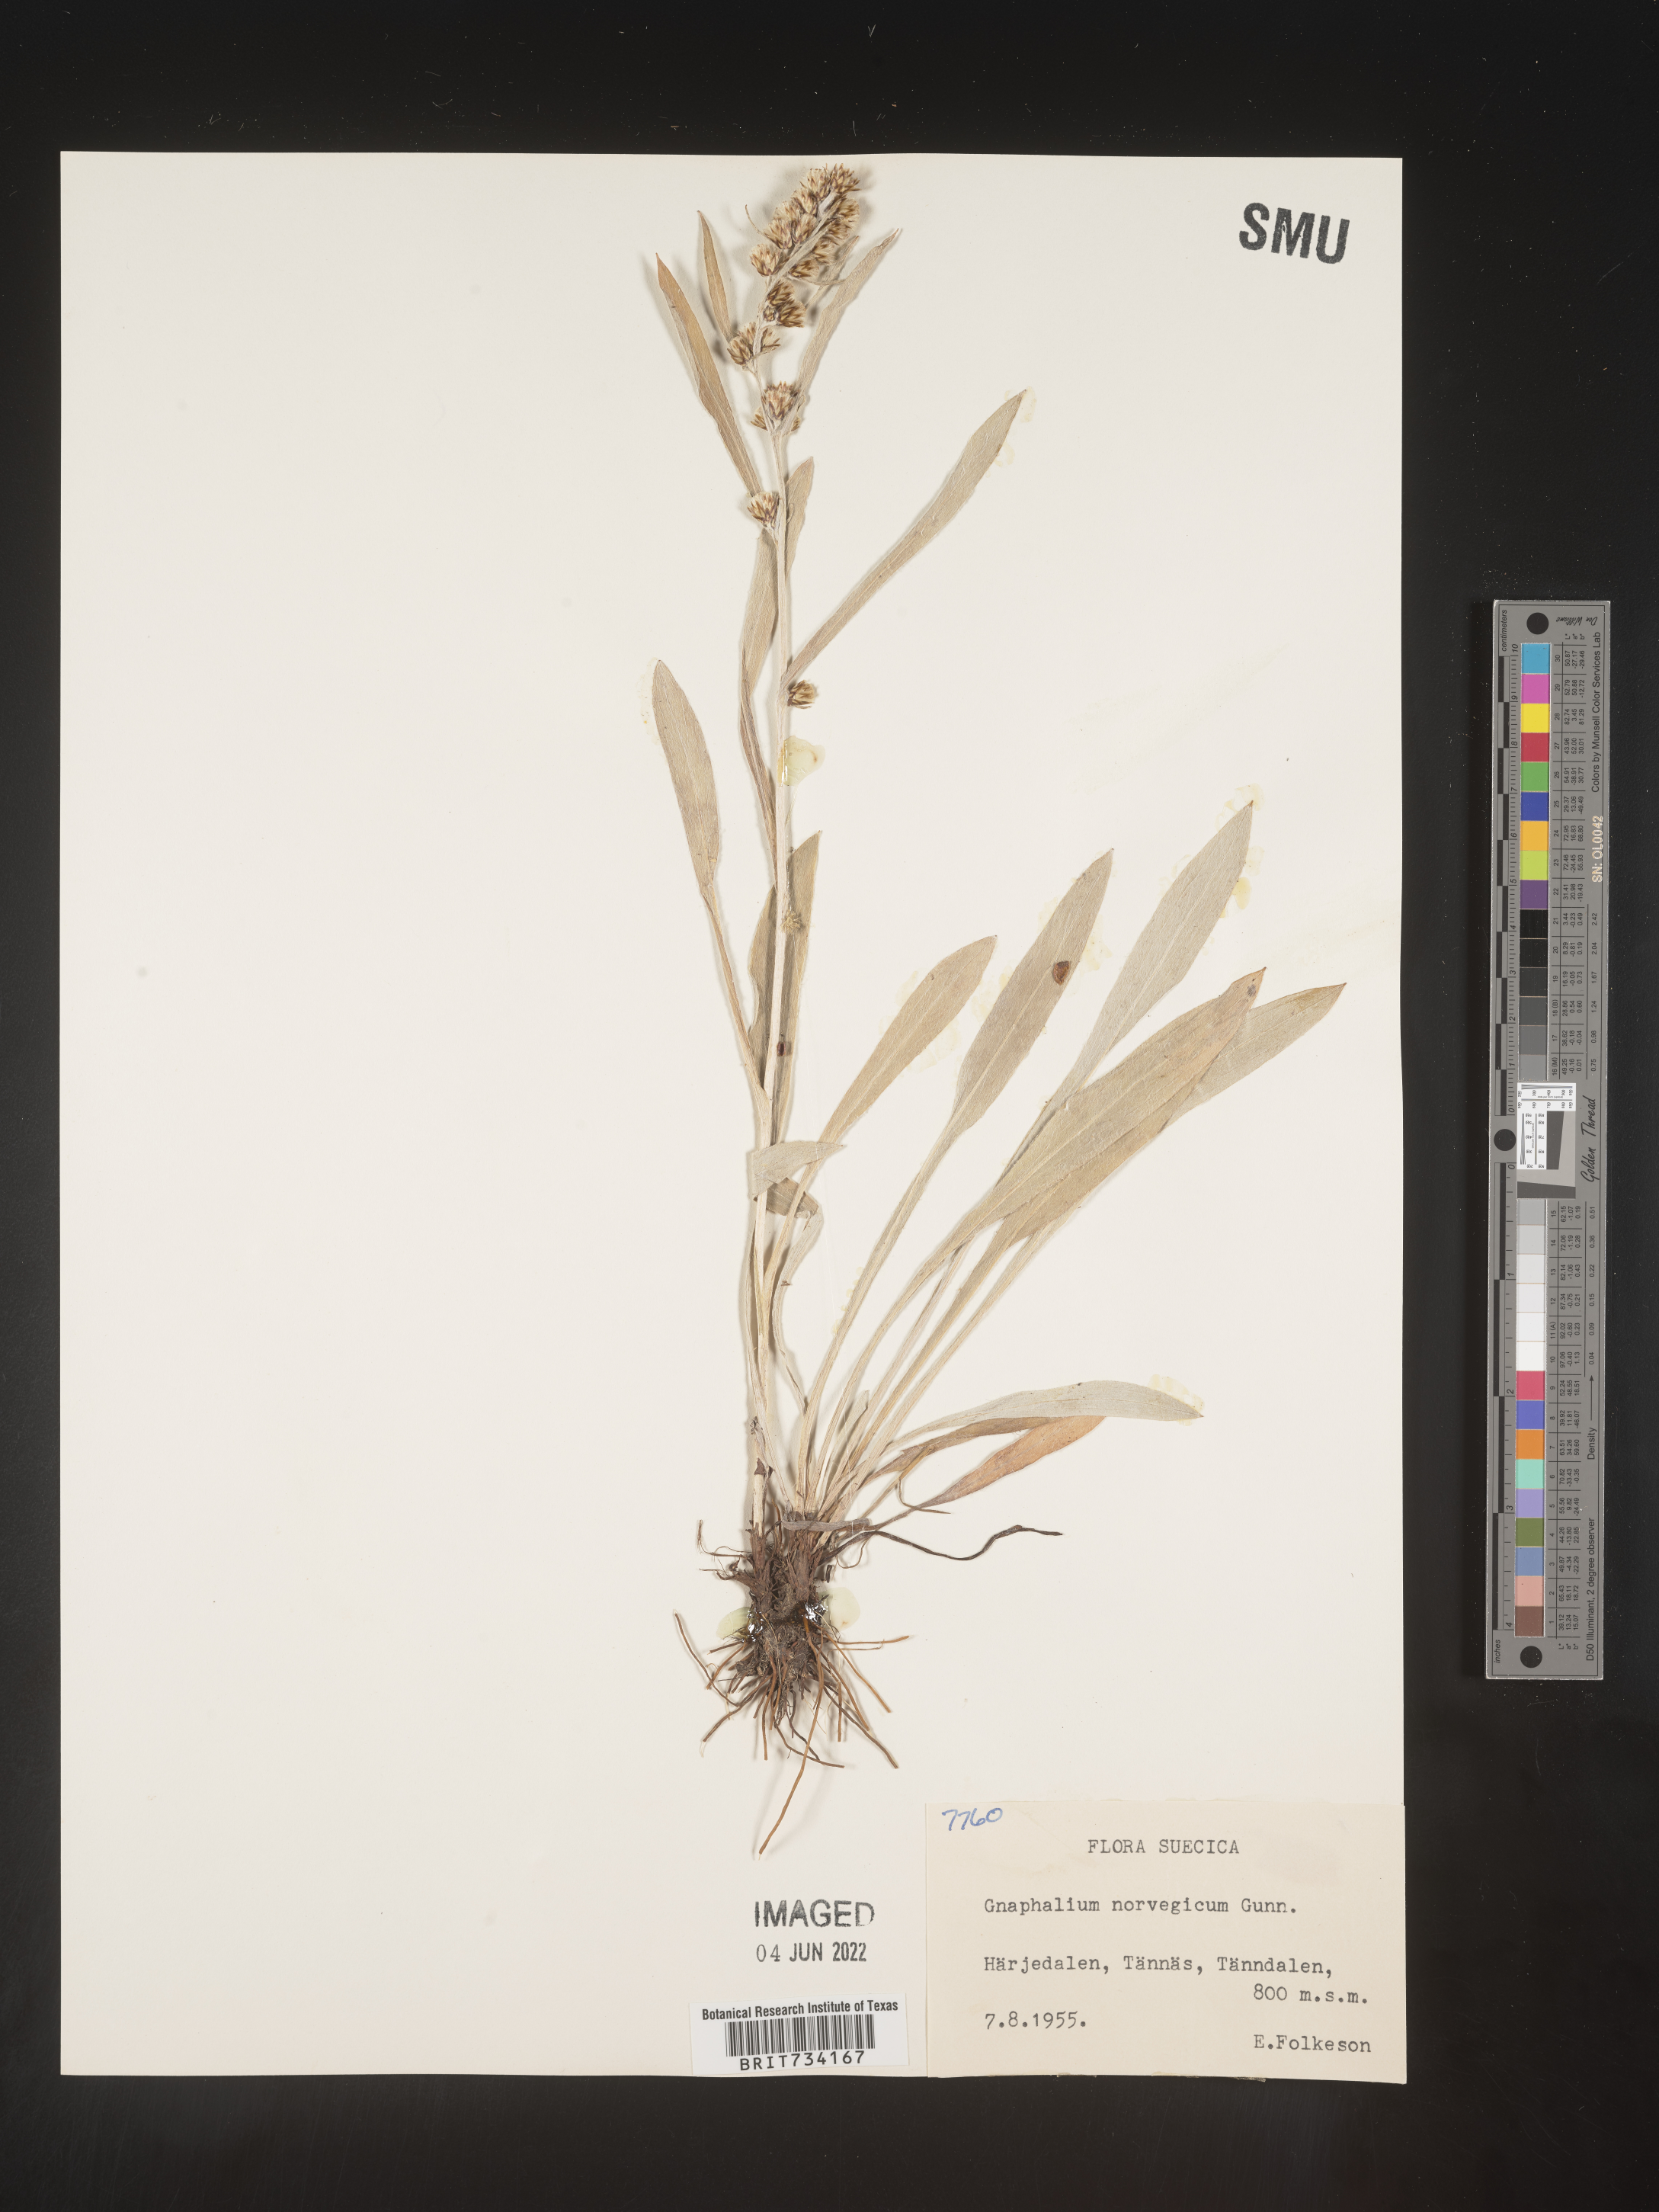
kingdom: Plantae
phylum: Tracheophyta
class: Magnoliopsida
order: Asterales
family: Asteraceae
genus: Omalotheca
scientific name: Omalotheca norvegica
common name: Norwegian arctic-cudweed
